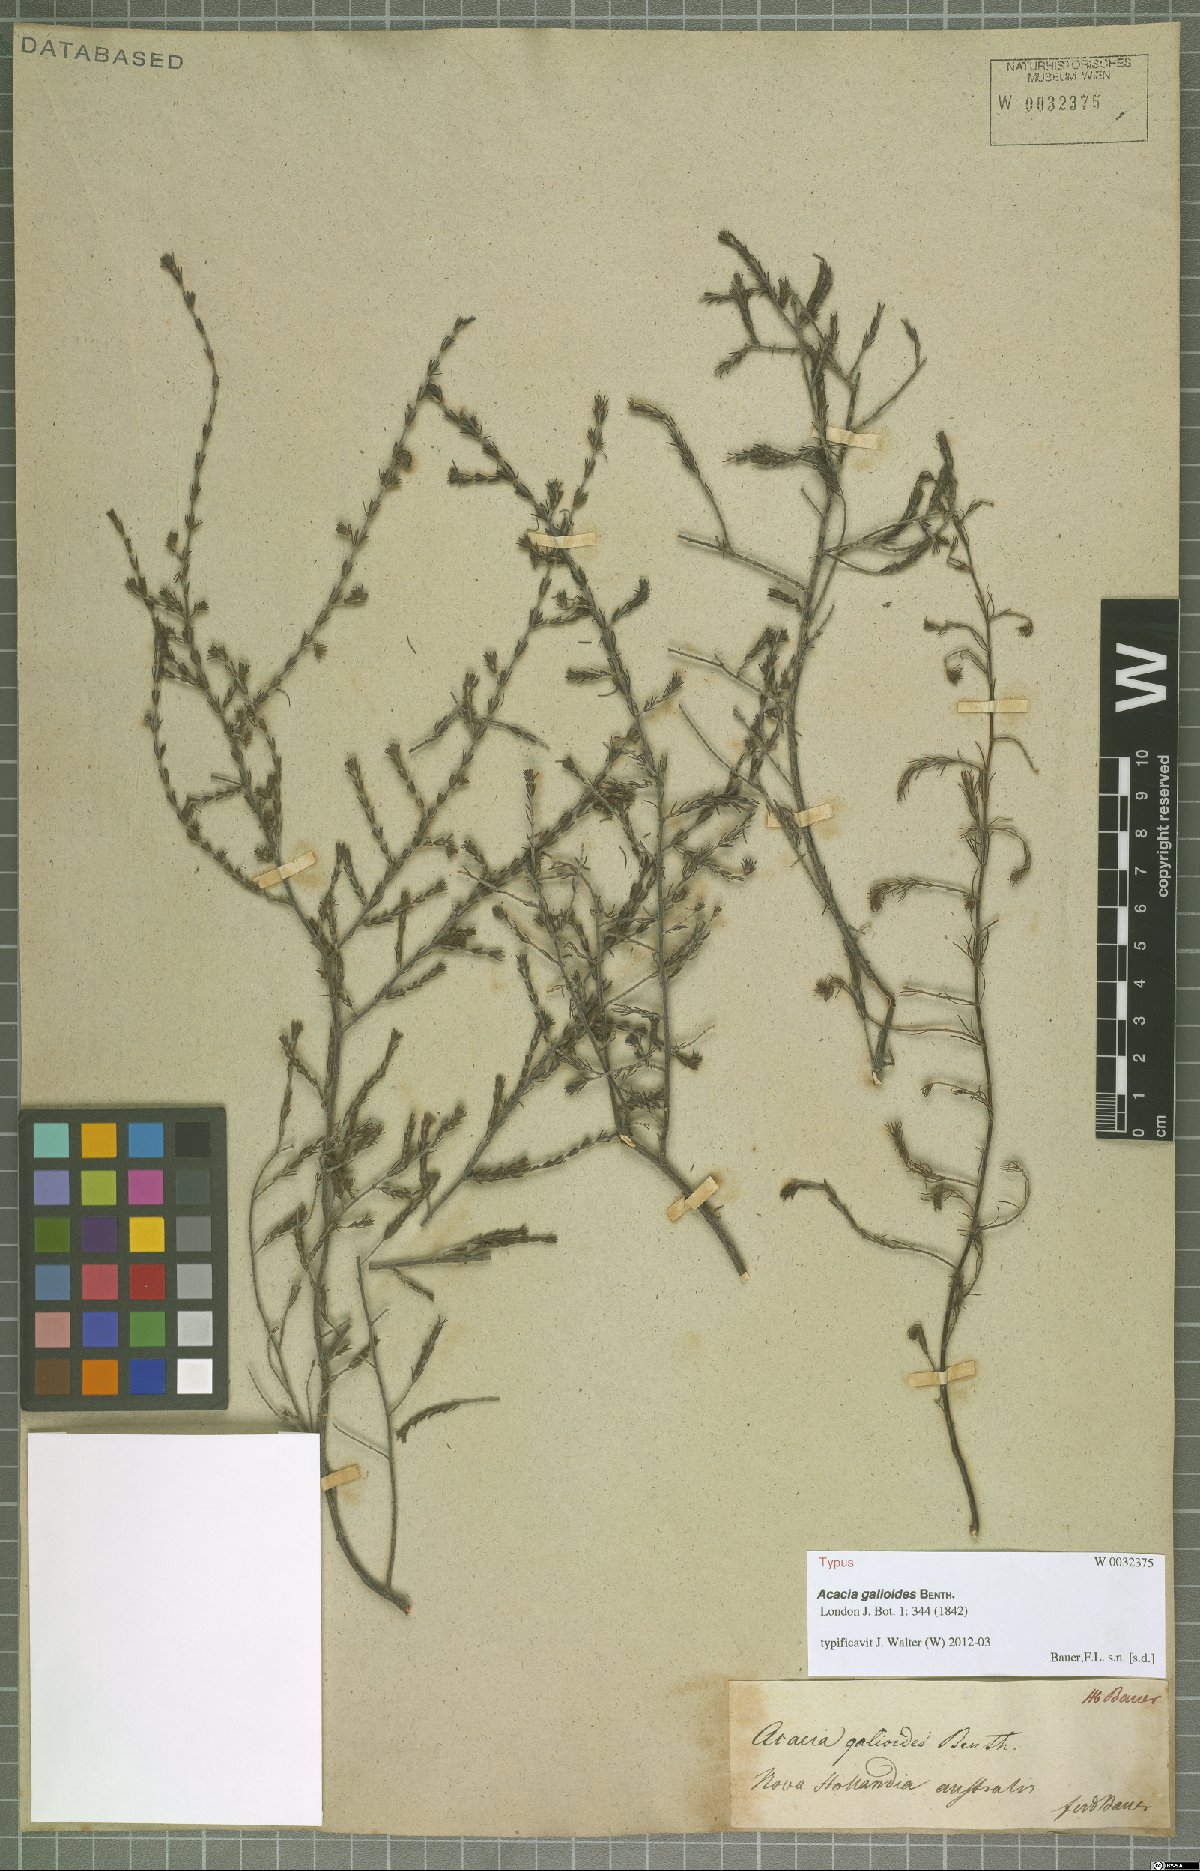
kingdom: Plantae
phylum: Tracheophyta
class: Magnoliopsida
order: Fabales
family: Fabaceae
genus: Acacia
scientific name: Acacia galioides
